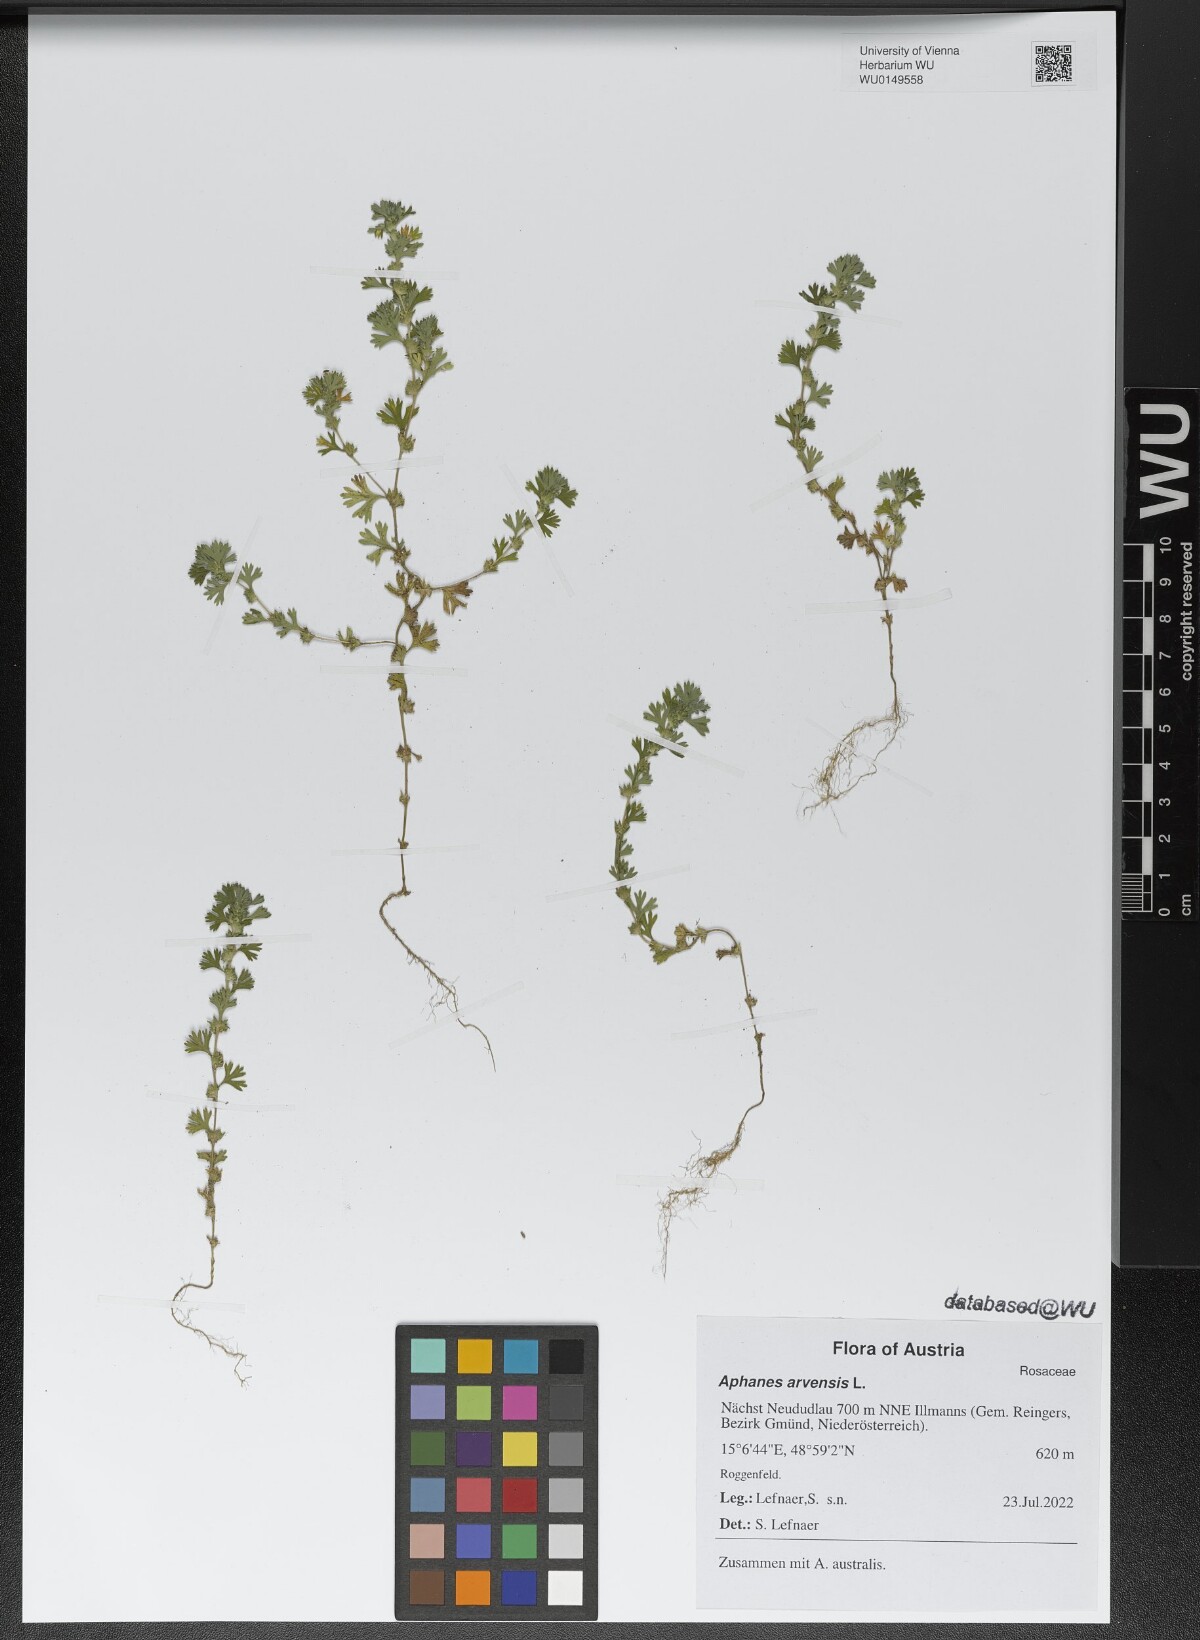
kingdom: Plantae
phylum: Tracheophyta
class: Magnoliopsida
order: Rosales
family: Rosaceae
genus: Aphanes
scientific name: Aphanes arvensis
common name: Parsley-piert
